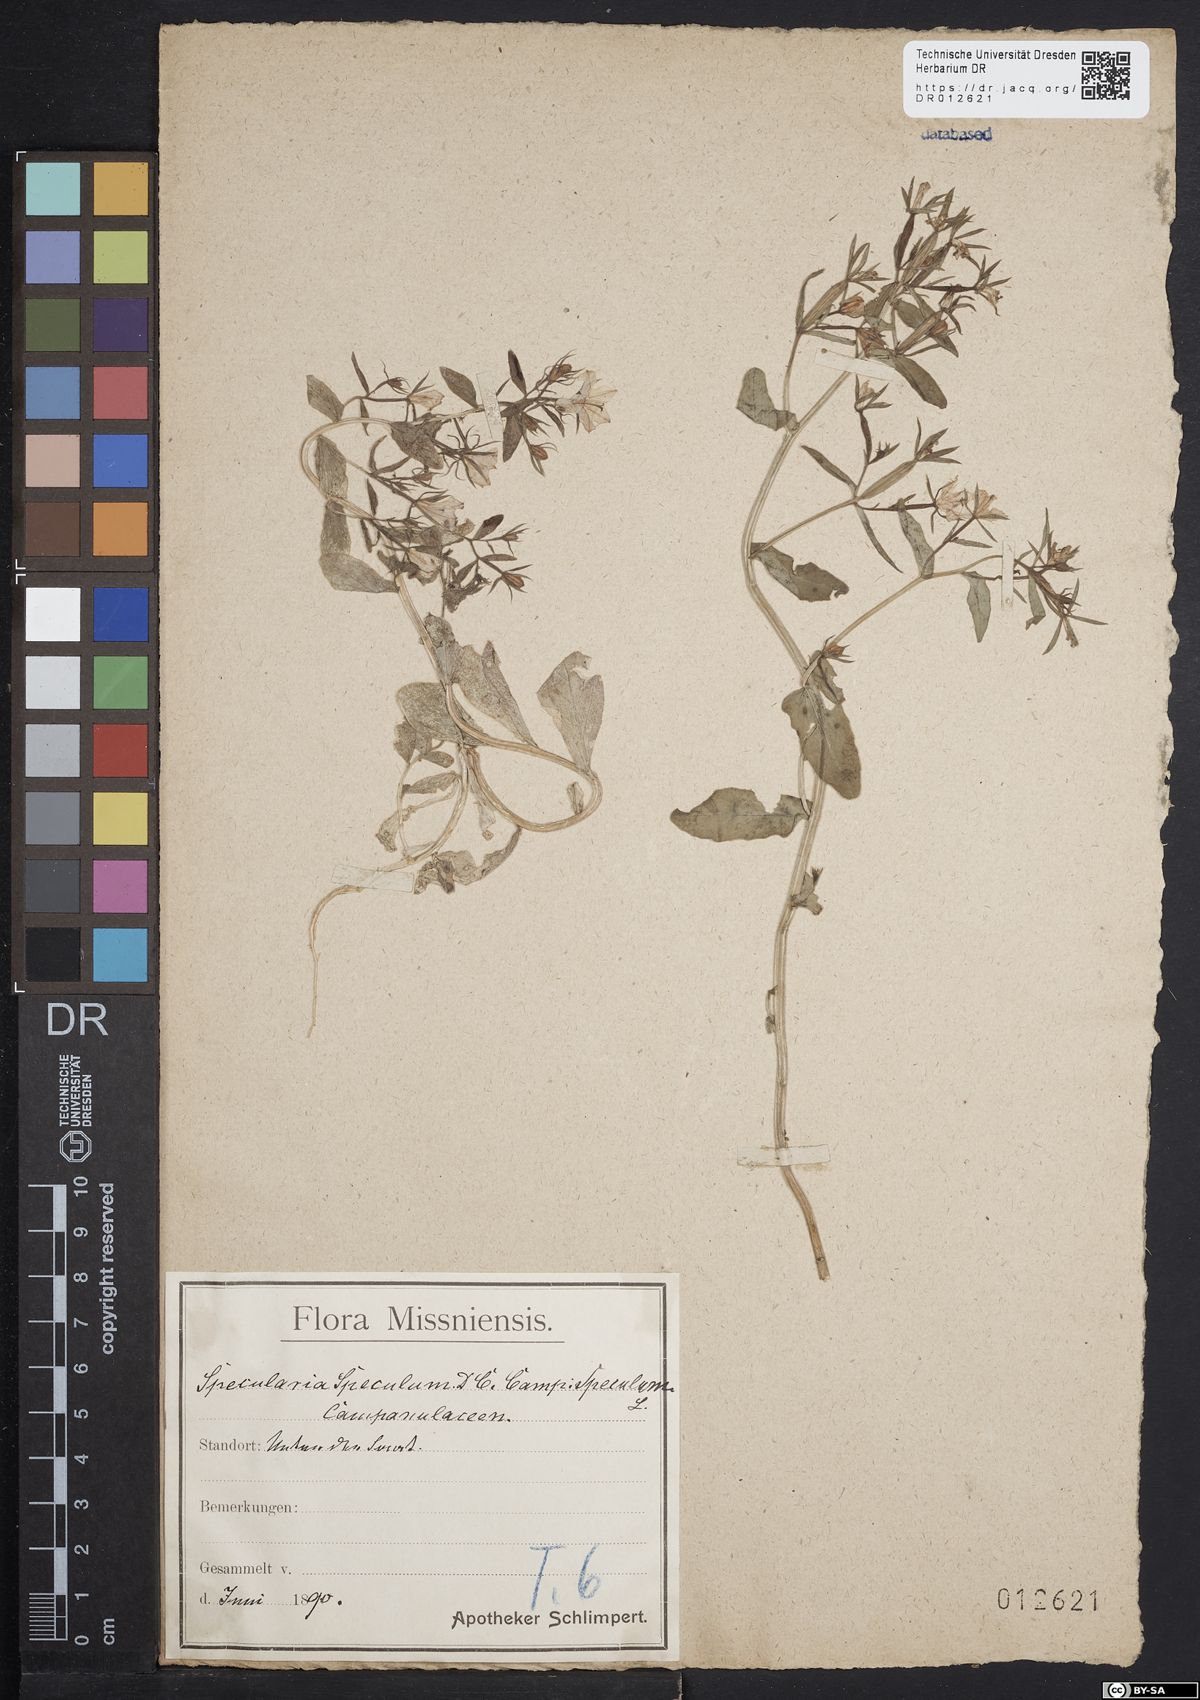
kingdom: Plantae
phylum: Tracheophyta
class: Magnoliopsida
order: Asterales
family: Campanulaceae
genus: Legousia
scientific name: Legousia speculum-veneris
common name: Large venus's-looking-glass
